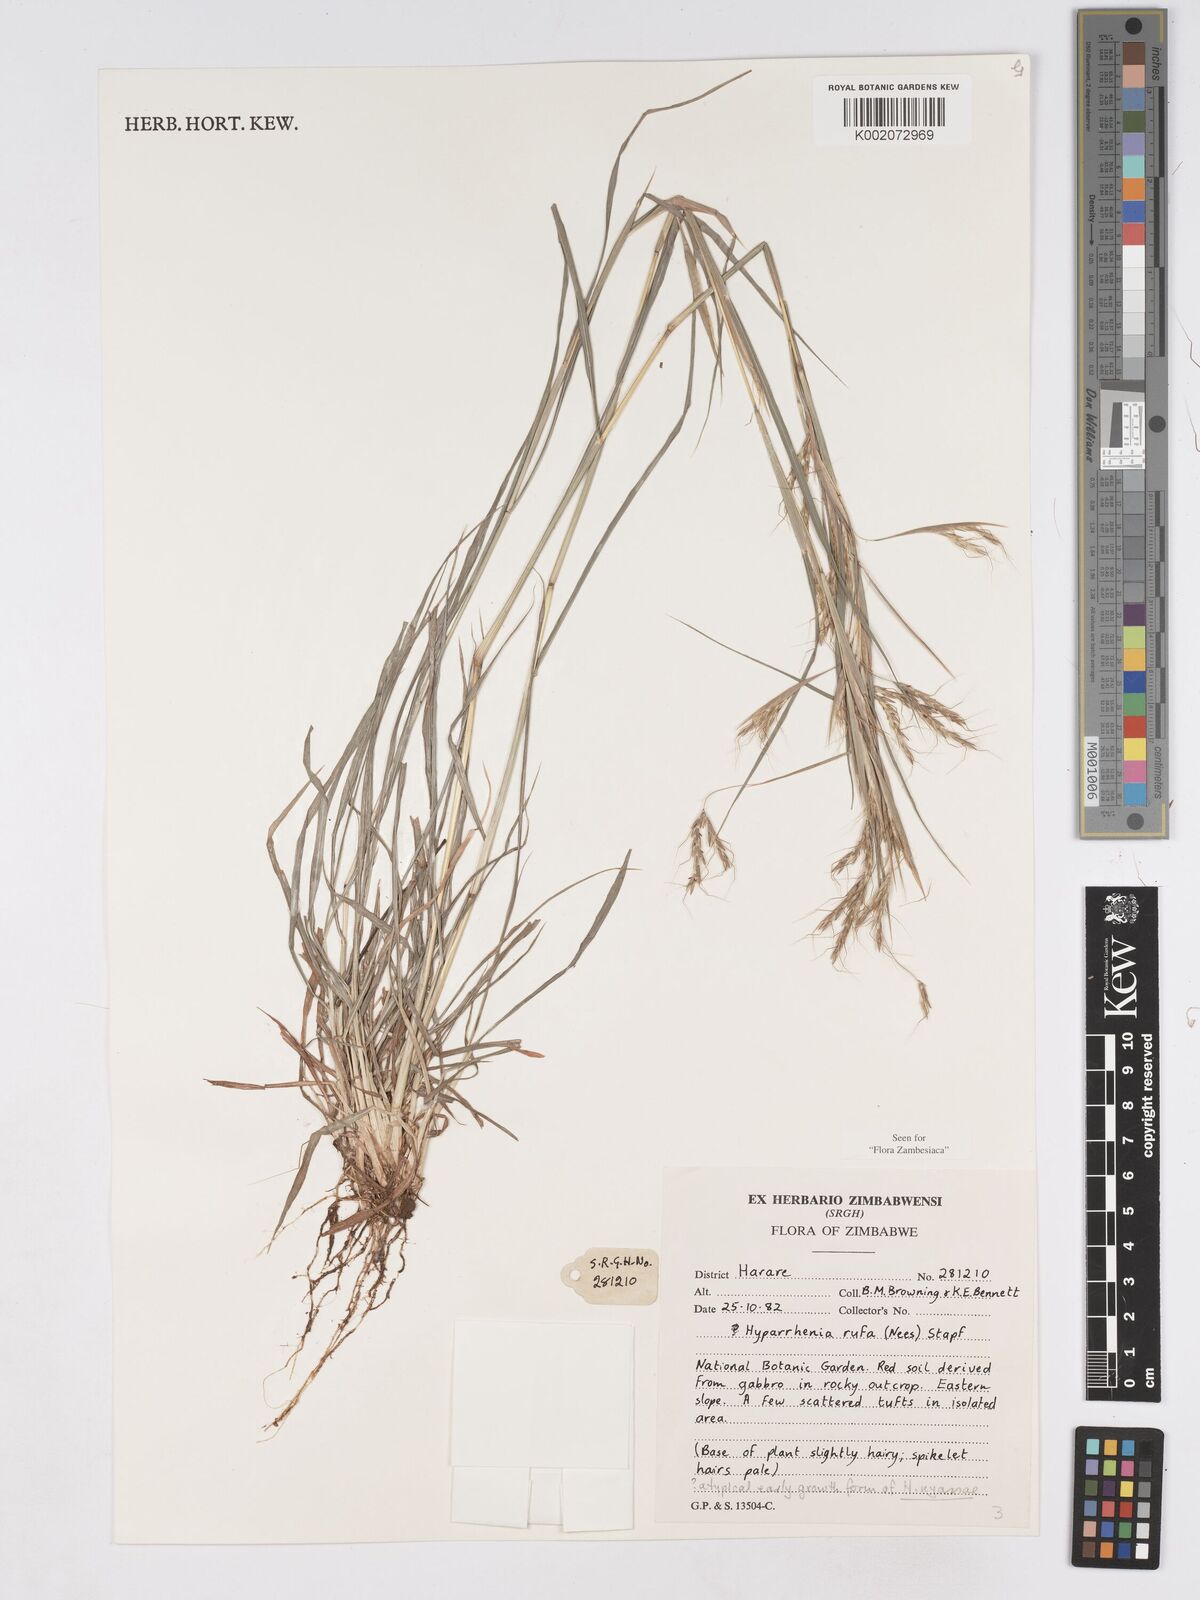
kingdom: Plantae
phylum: Tracheophyta
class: Liliopsida
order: Poales
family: Poaceae
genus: Hyparrhenia
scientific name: Hyparrhenia rufa
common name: Jaraguagrass
